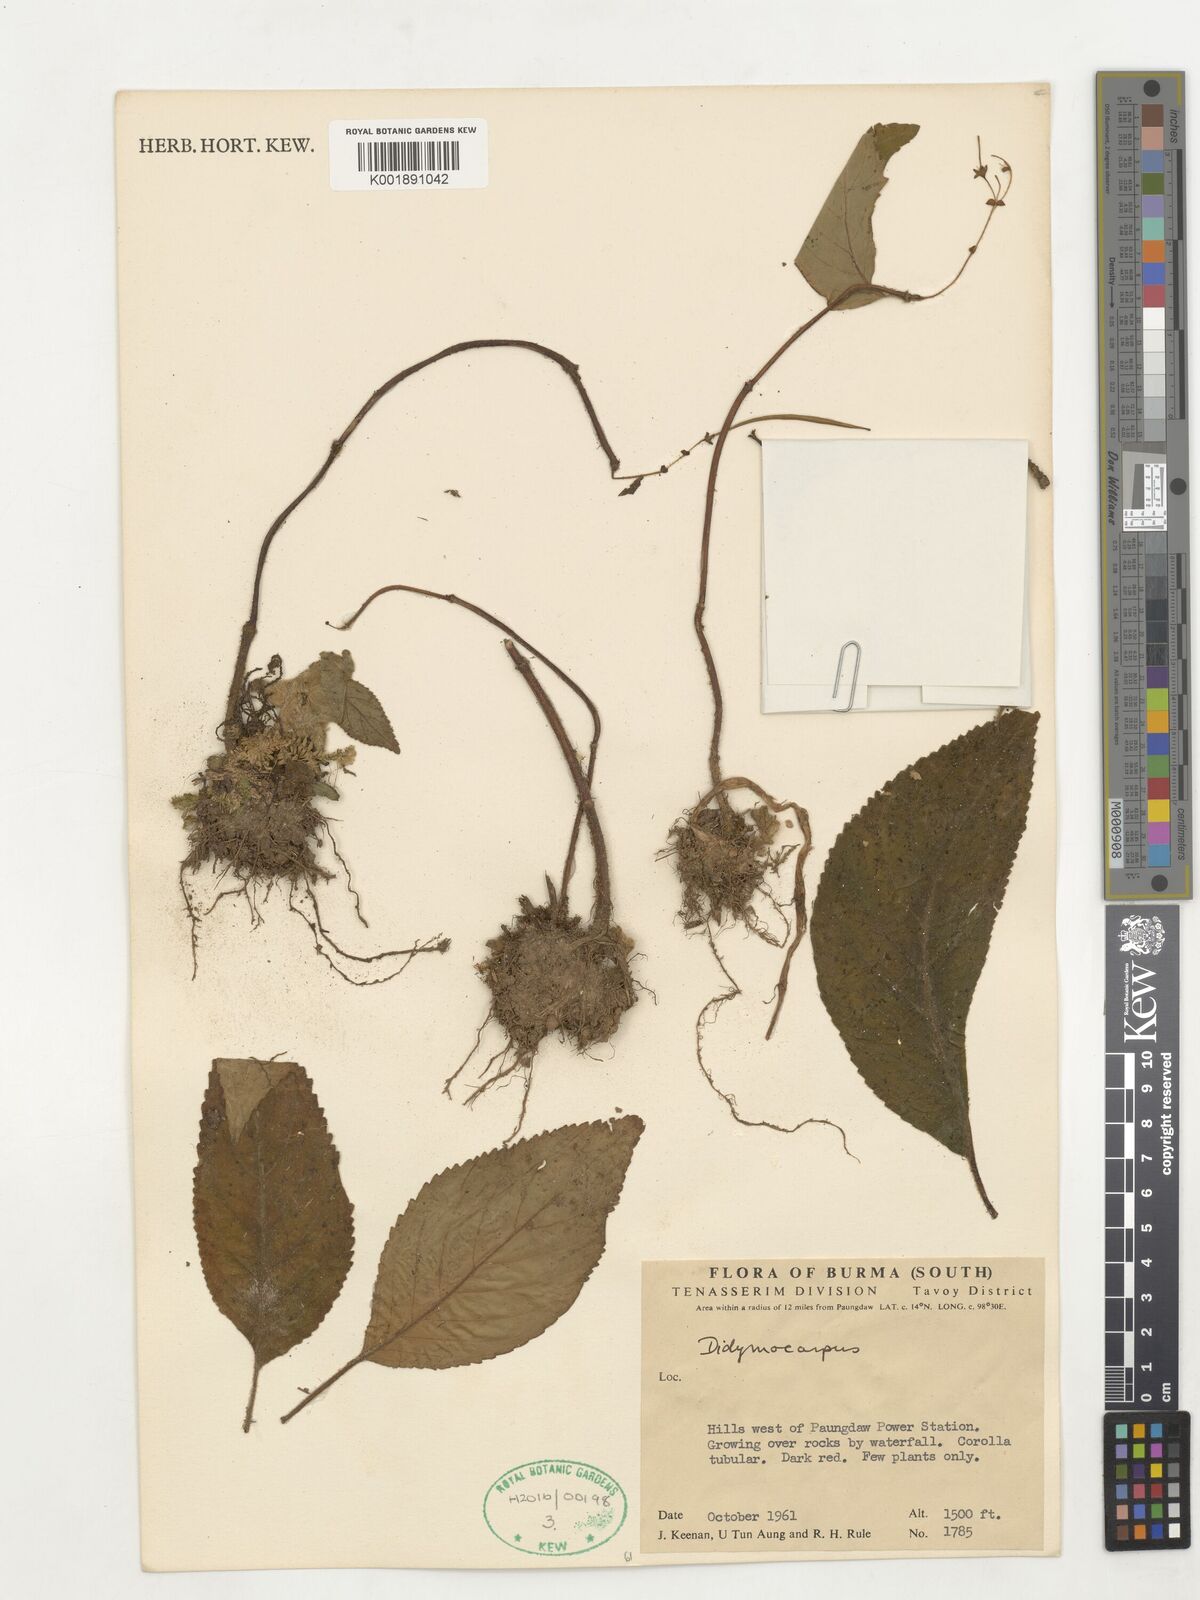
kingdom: Plantae
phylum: Tracheophyta
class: Magnoliopsida
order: Lamiales
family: Gesneriaceae
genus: Didymocarpus
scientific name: Didymocarpus
